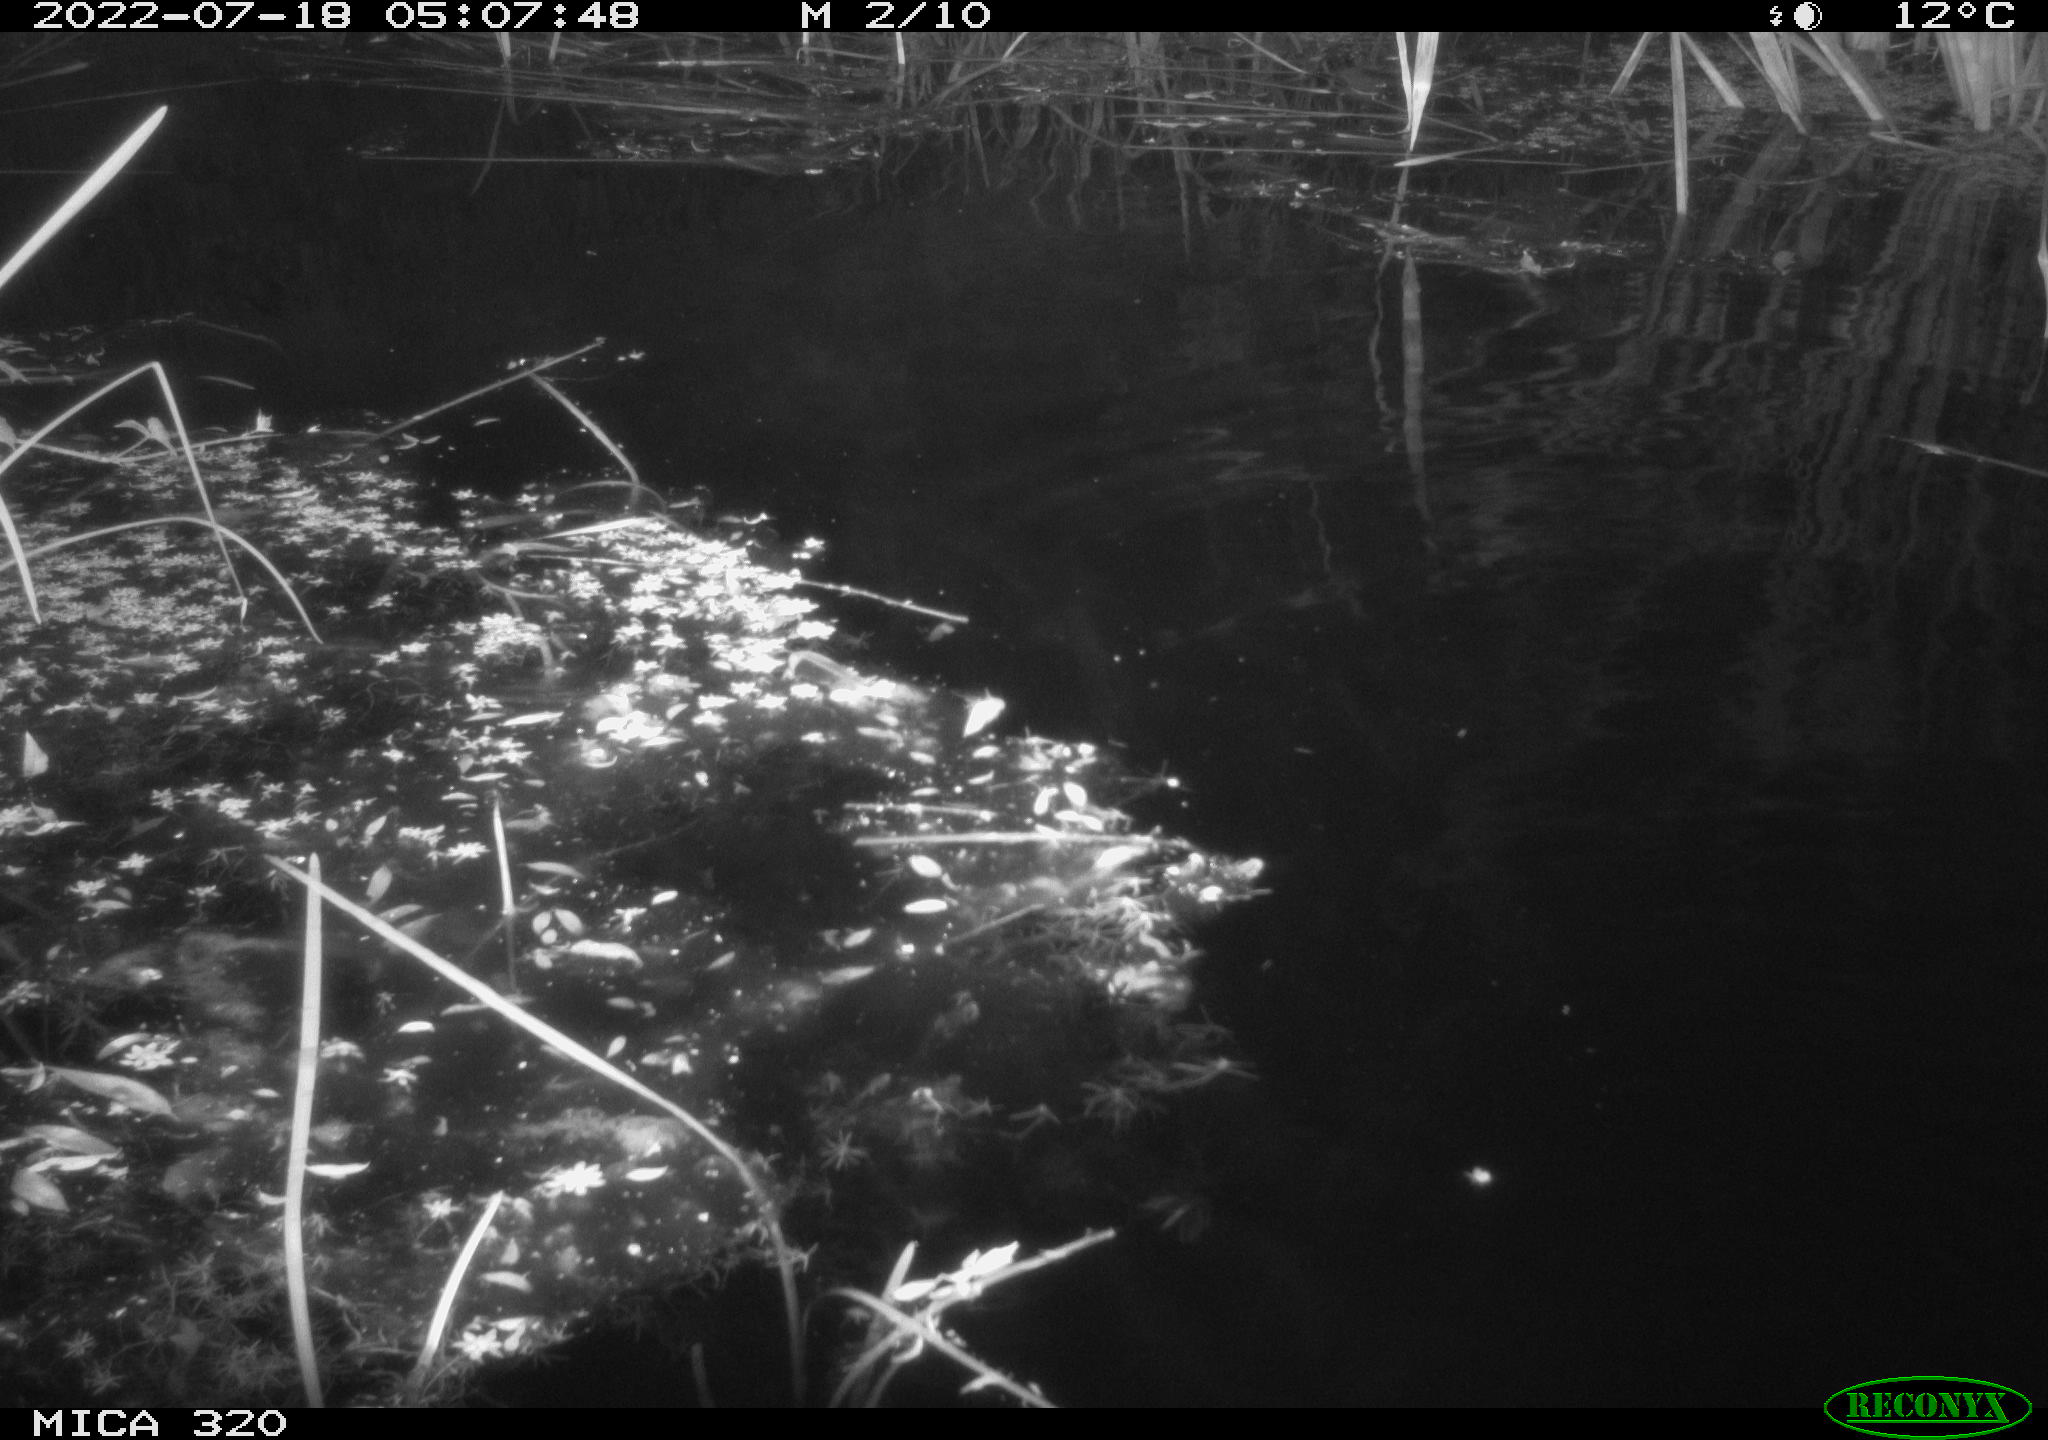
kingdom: Animalia
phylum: Chordata
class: Aves
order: Anseriformes
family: Anatidae
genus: Anas
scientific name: Anas platyrhynchos
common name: Mallard
